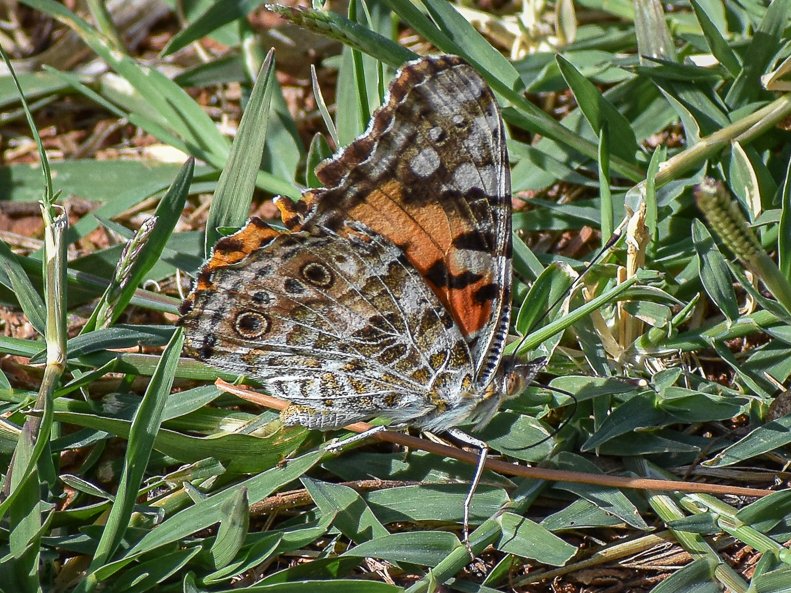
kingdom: Animalia
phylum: Arthropoda
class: Insecta
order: Lepidoptera
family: Nymphalidae
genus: Vanessa
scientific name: Vanessa cardui
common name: Painted Lady
